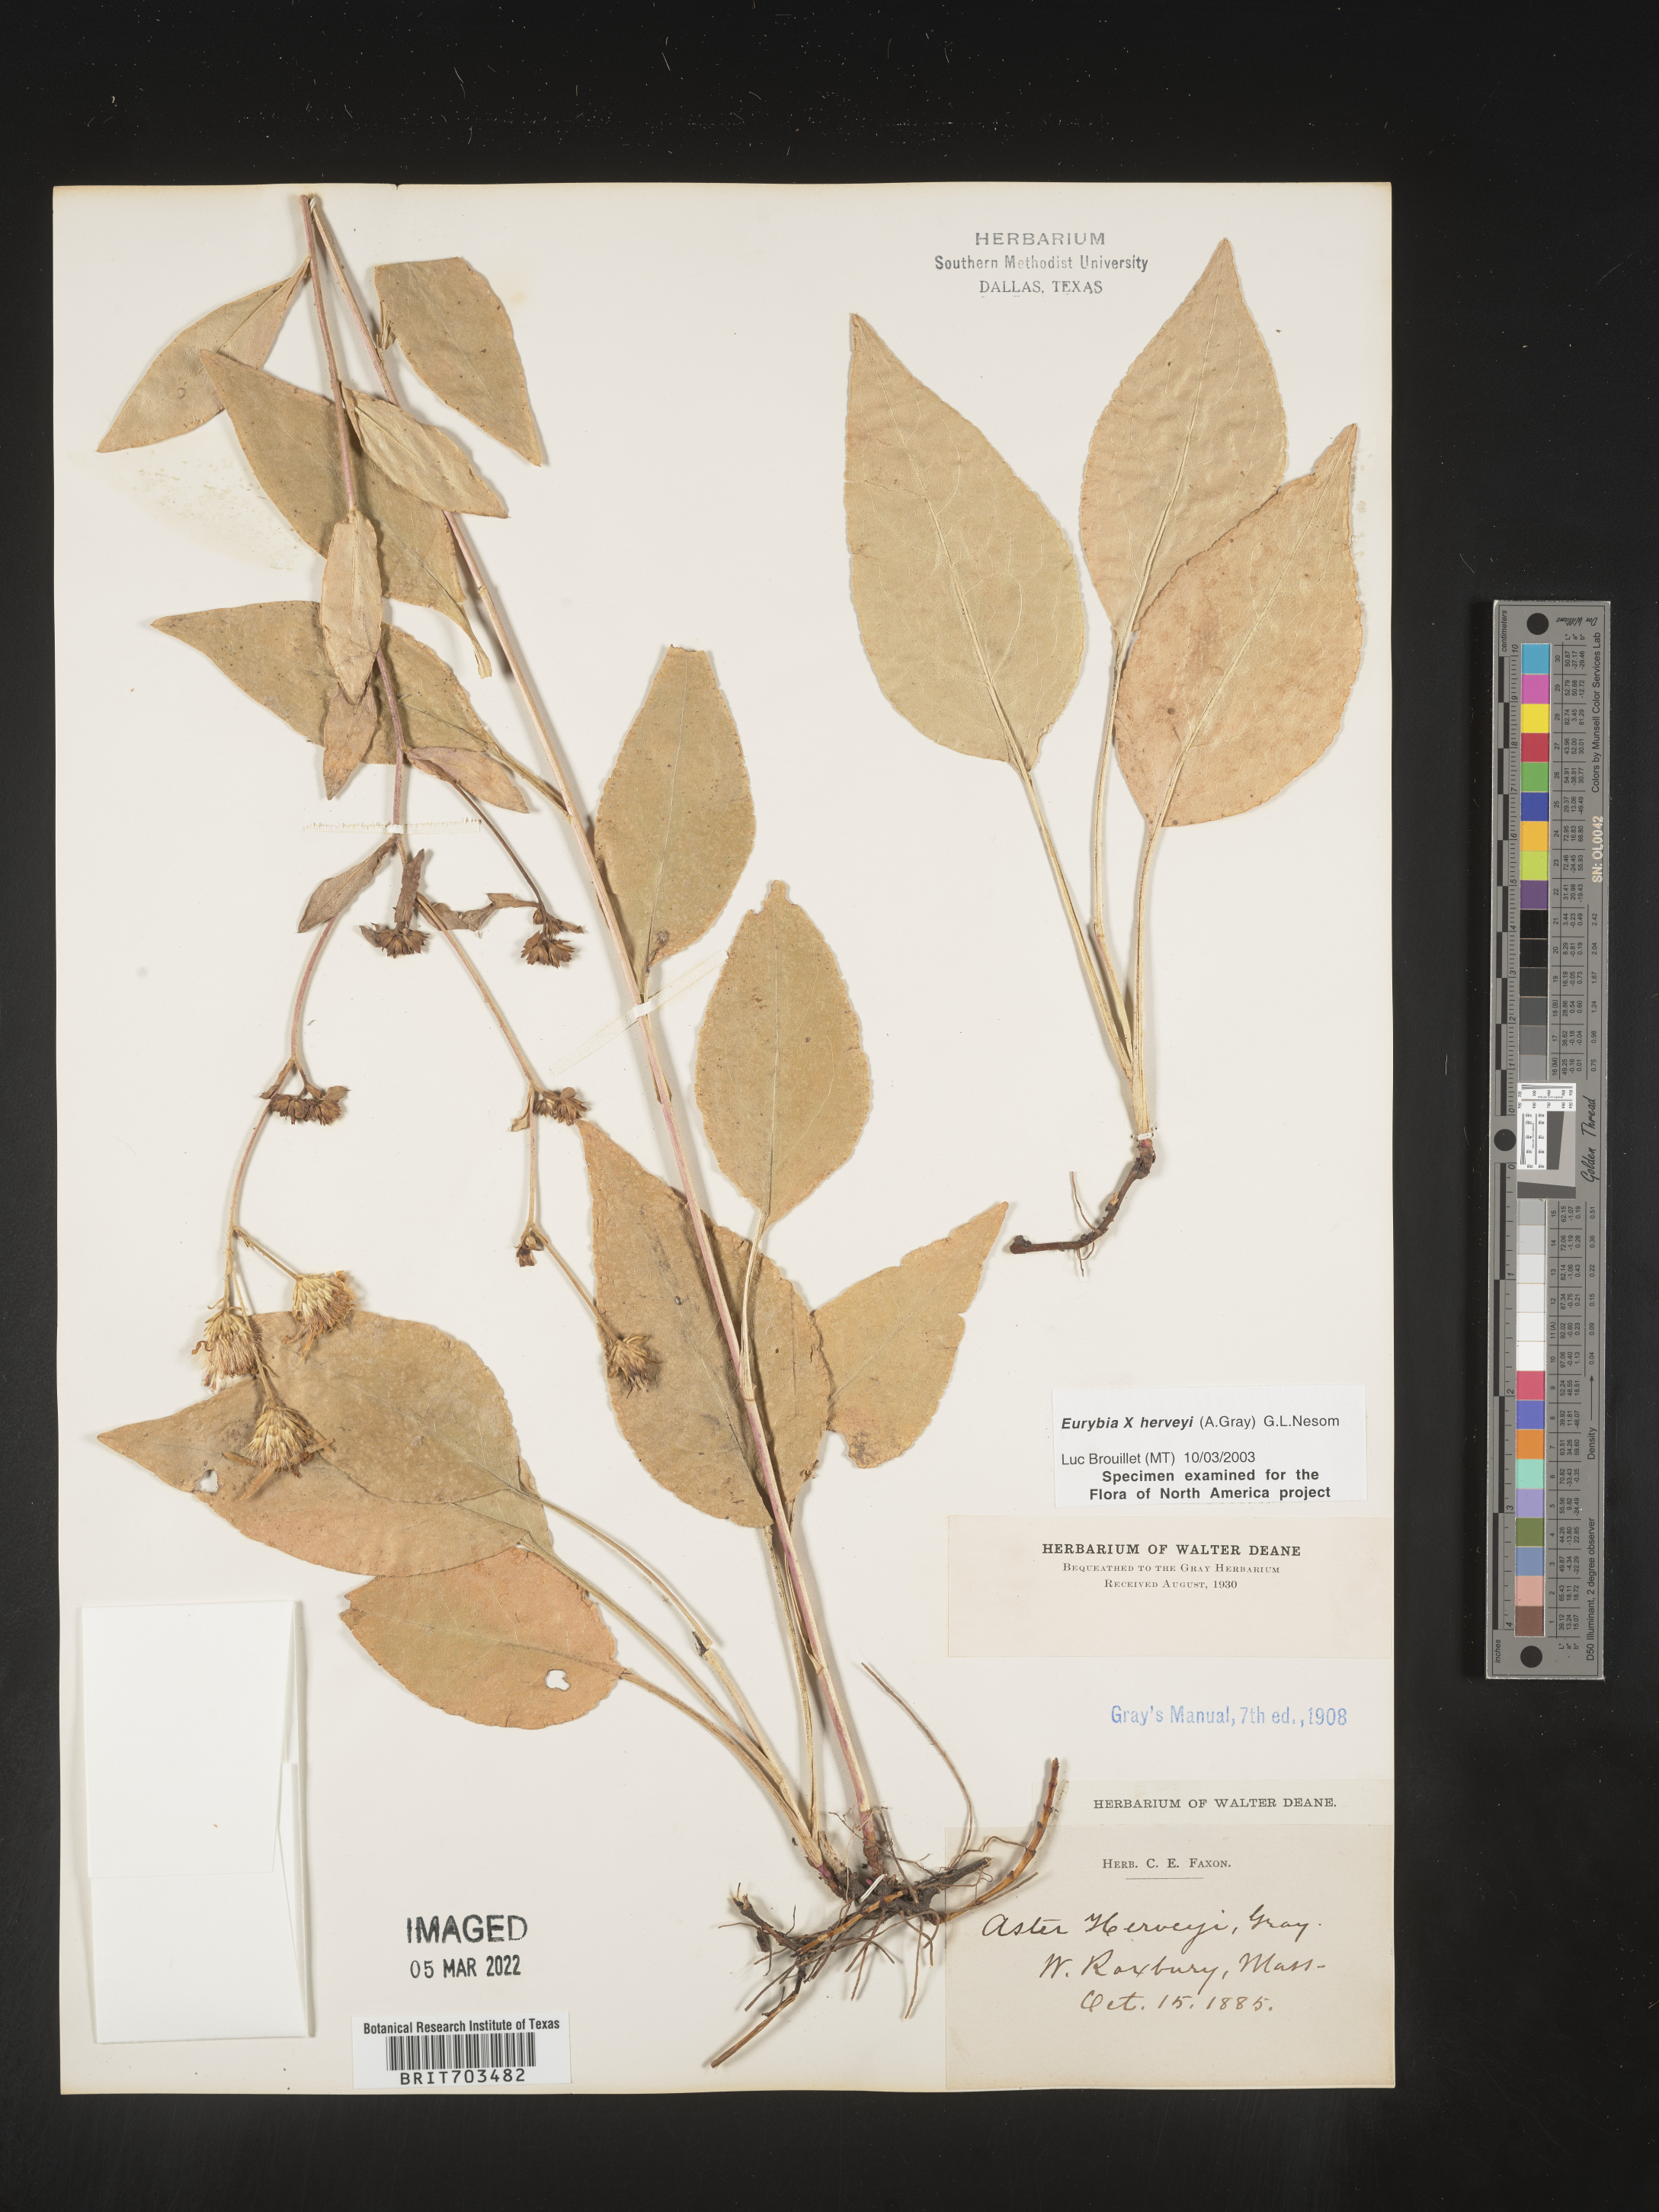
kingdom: Plantae
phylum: Tracheophyta
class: Magnoliopsida
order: Asterales
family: Asteraceae
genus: Eurybia
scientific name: Eurybia
